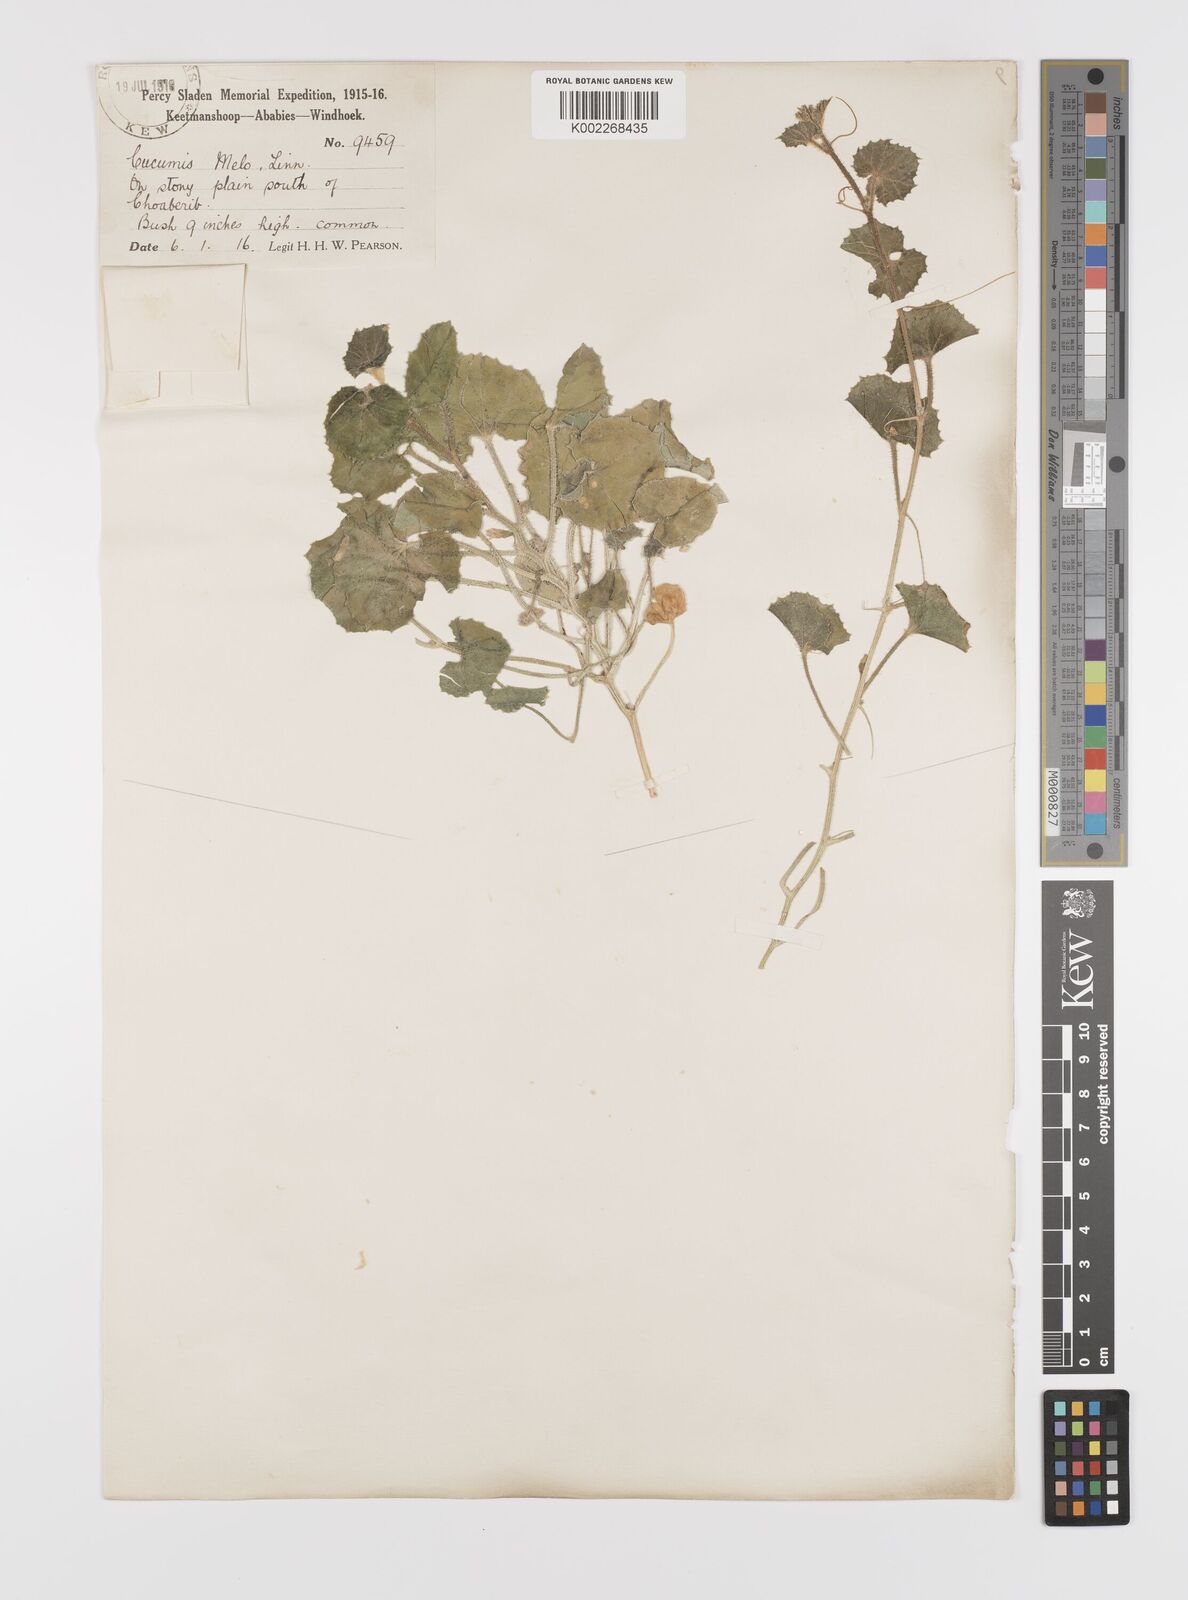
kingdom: Plantae
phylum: Tracheophyta
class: Magnoliopsida
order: Cucurbitales
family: Cucurbitaceae
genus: Cucumis
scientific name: Cucumis sagittatus
